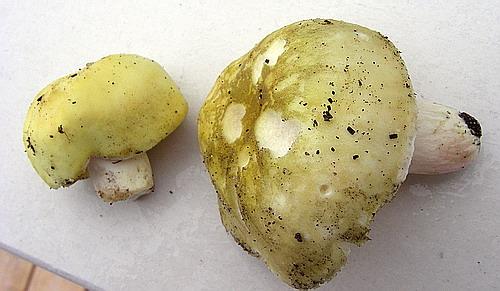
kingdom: Fungi
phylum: Basidiomycota
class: Agaricomycetes
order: Russulales
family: Russulaceae
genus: Russula
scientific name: Russula violeipes
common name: ferskengul skørhat
